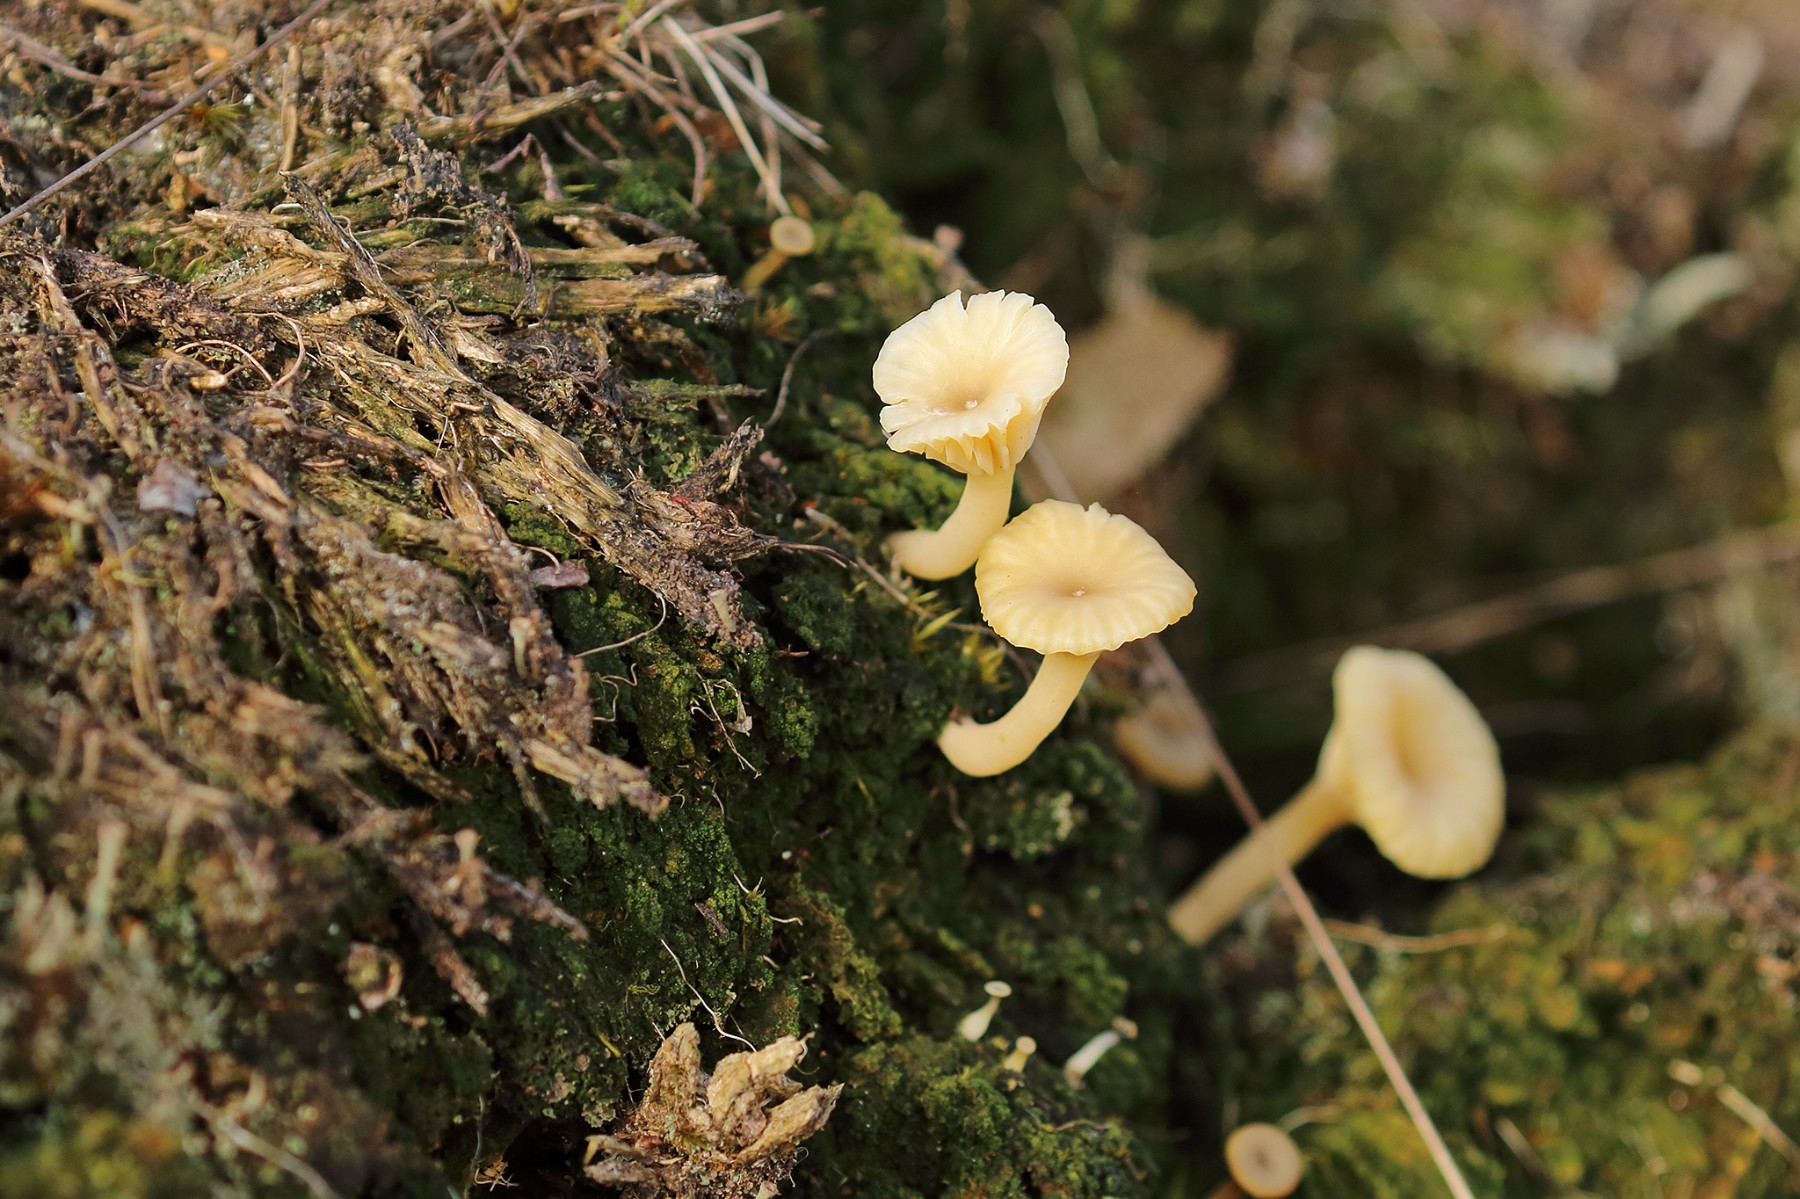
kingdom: Fungi
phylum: Basidiomycota
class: Agaricomycetes
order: Agaricales
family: Hygrophoraceae
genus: Lichenomphalia
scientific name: Lichenomphalia umbellifera
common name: tørve-lavhat
